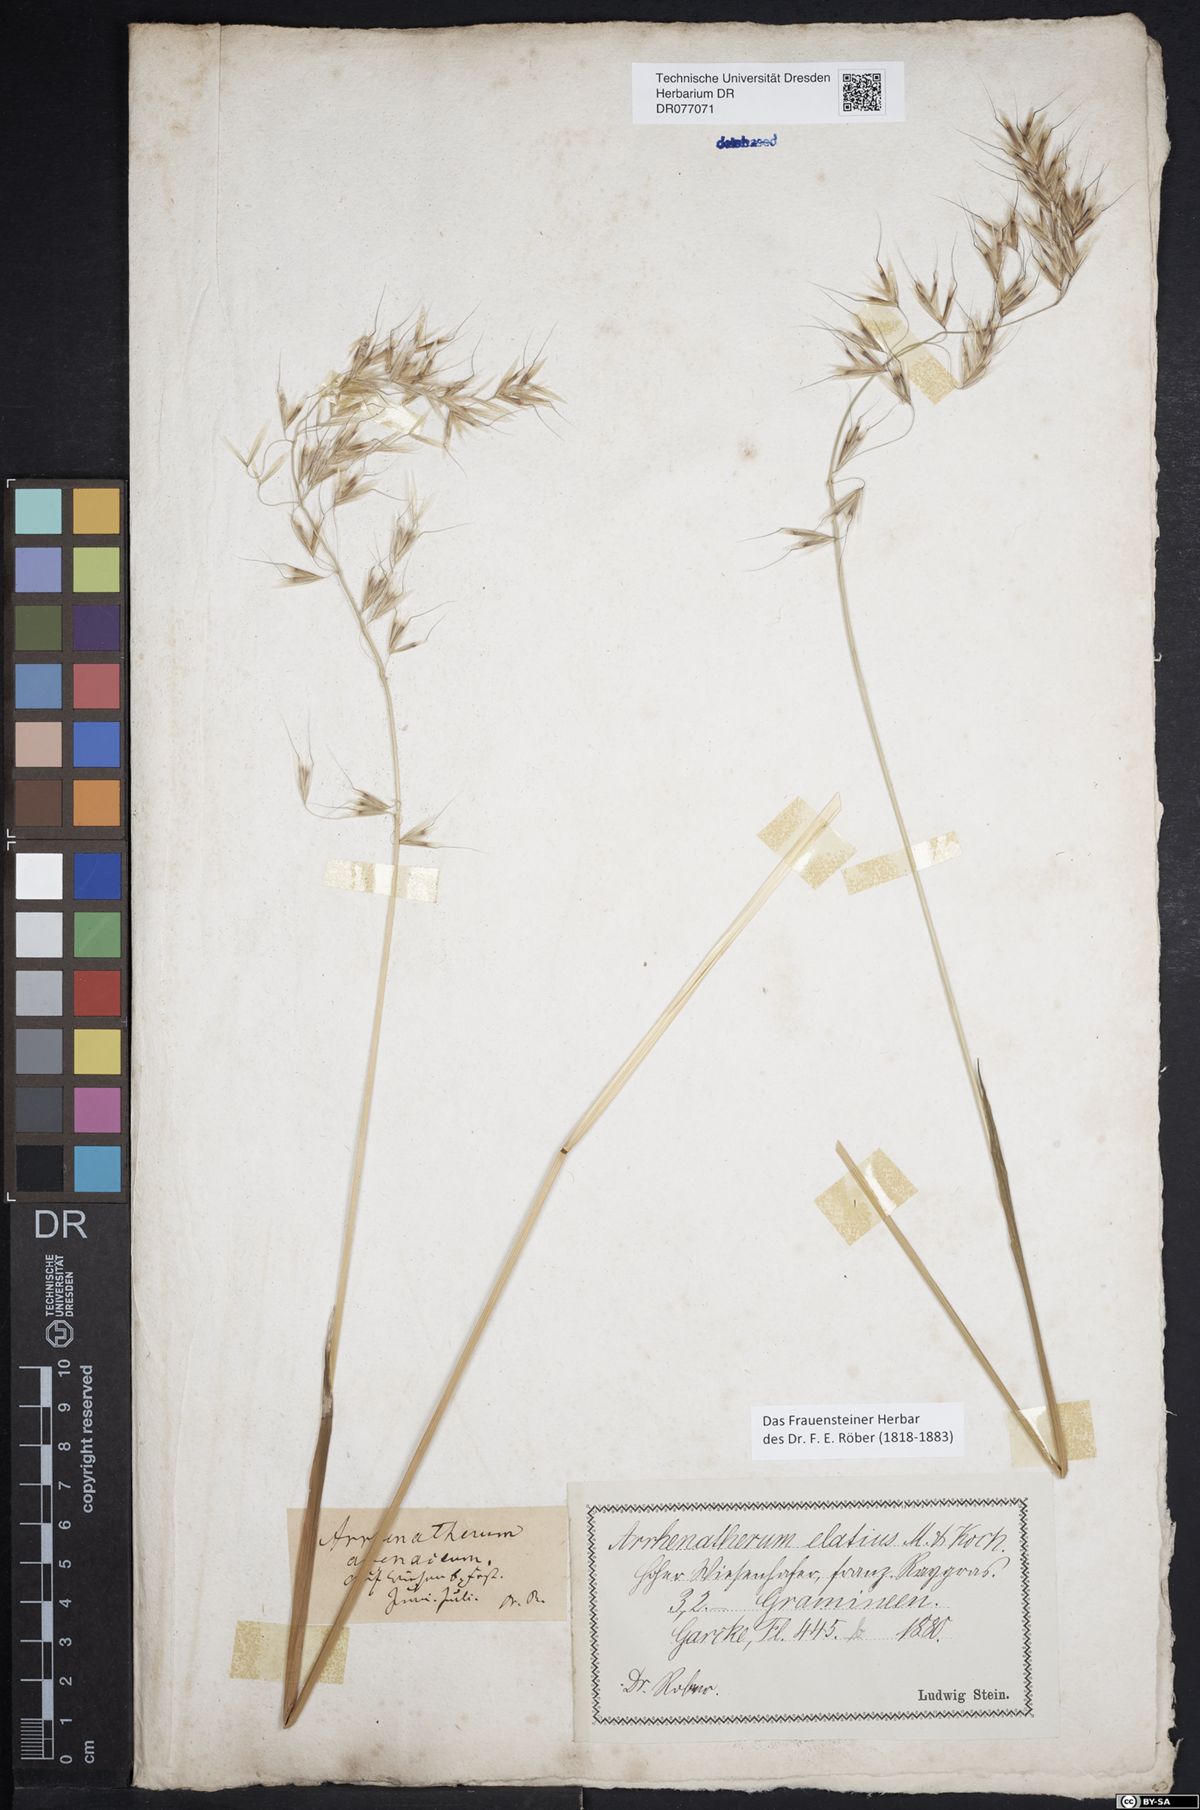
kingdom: Plantae
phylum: Tracheophyta
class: Liliopsida
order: Poales
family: Poaceae
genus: Avenula
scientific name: Avenula pubescens
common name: Downy alpine oatgrass
